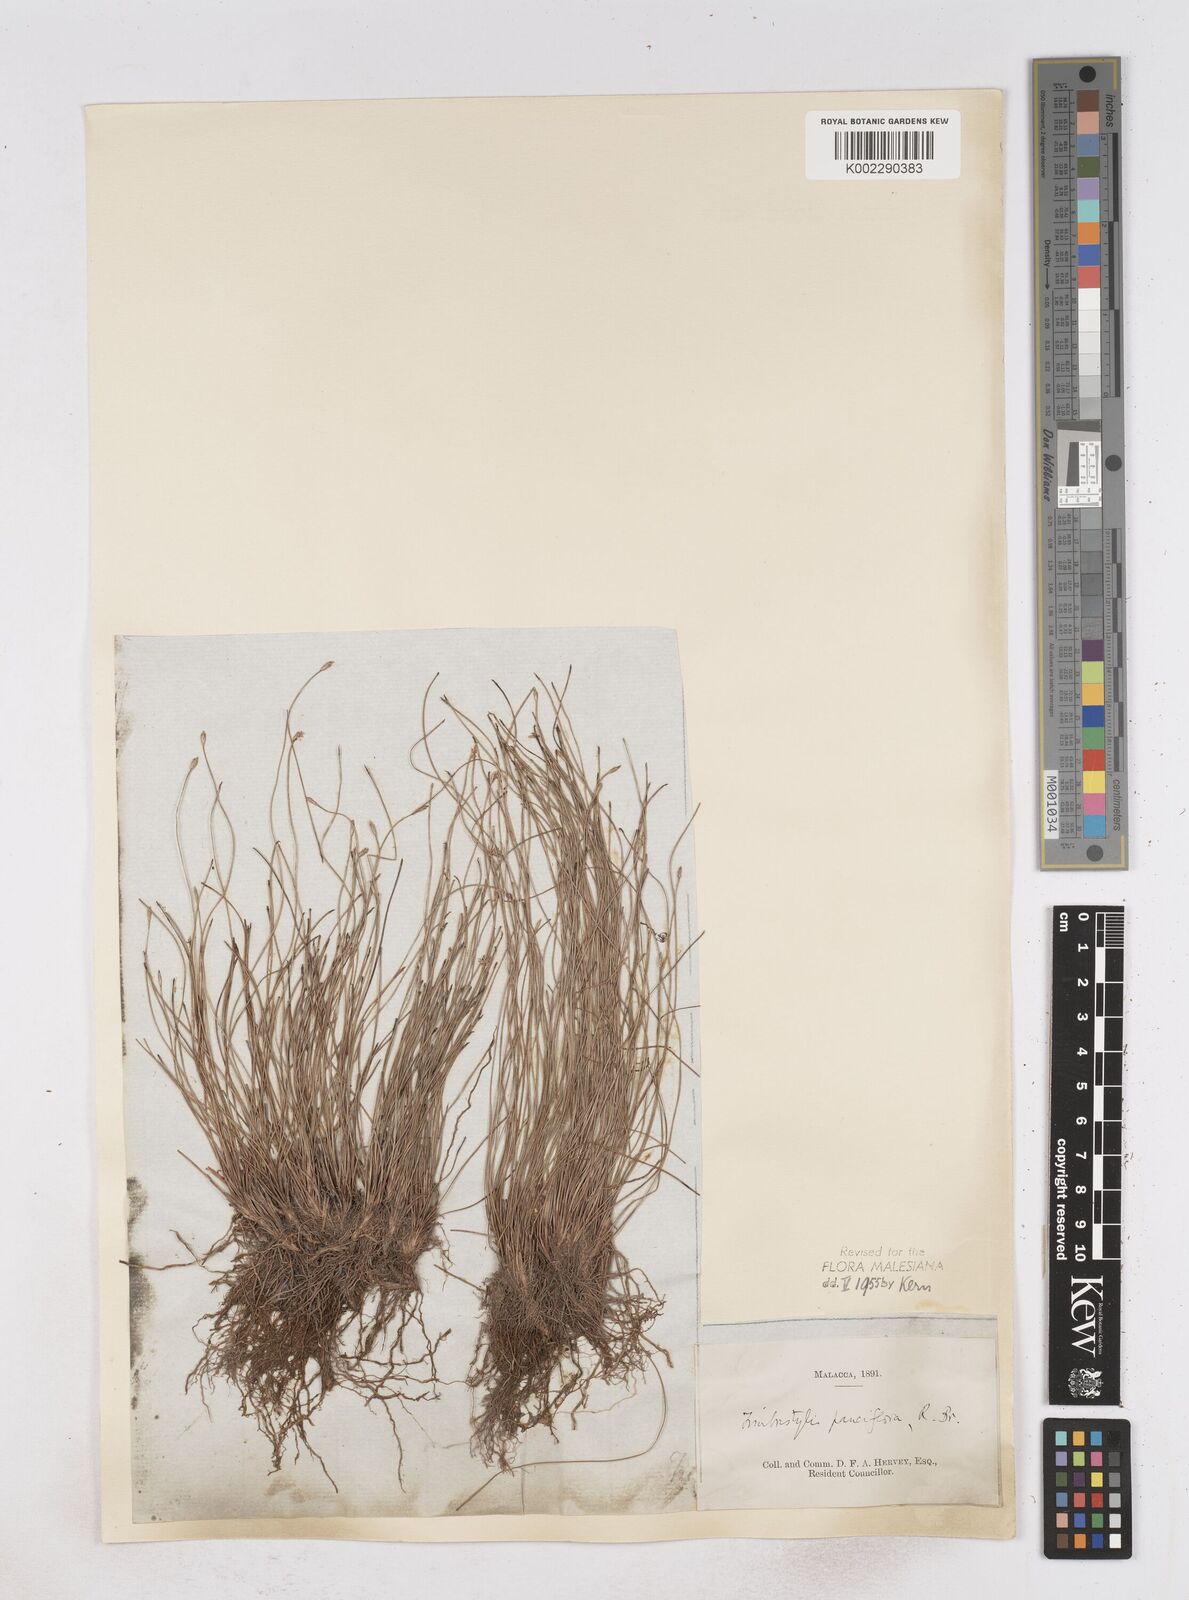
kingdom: Plantae
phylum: Tracheophyta
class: Liliopsida
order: Poales
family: Cyperaceae
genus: Fimbristylis
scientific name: Fimbristylis pauciflora
